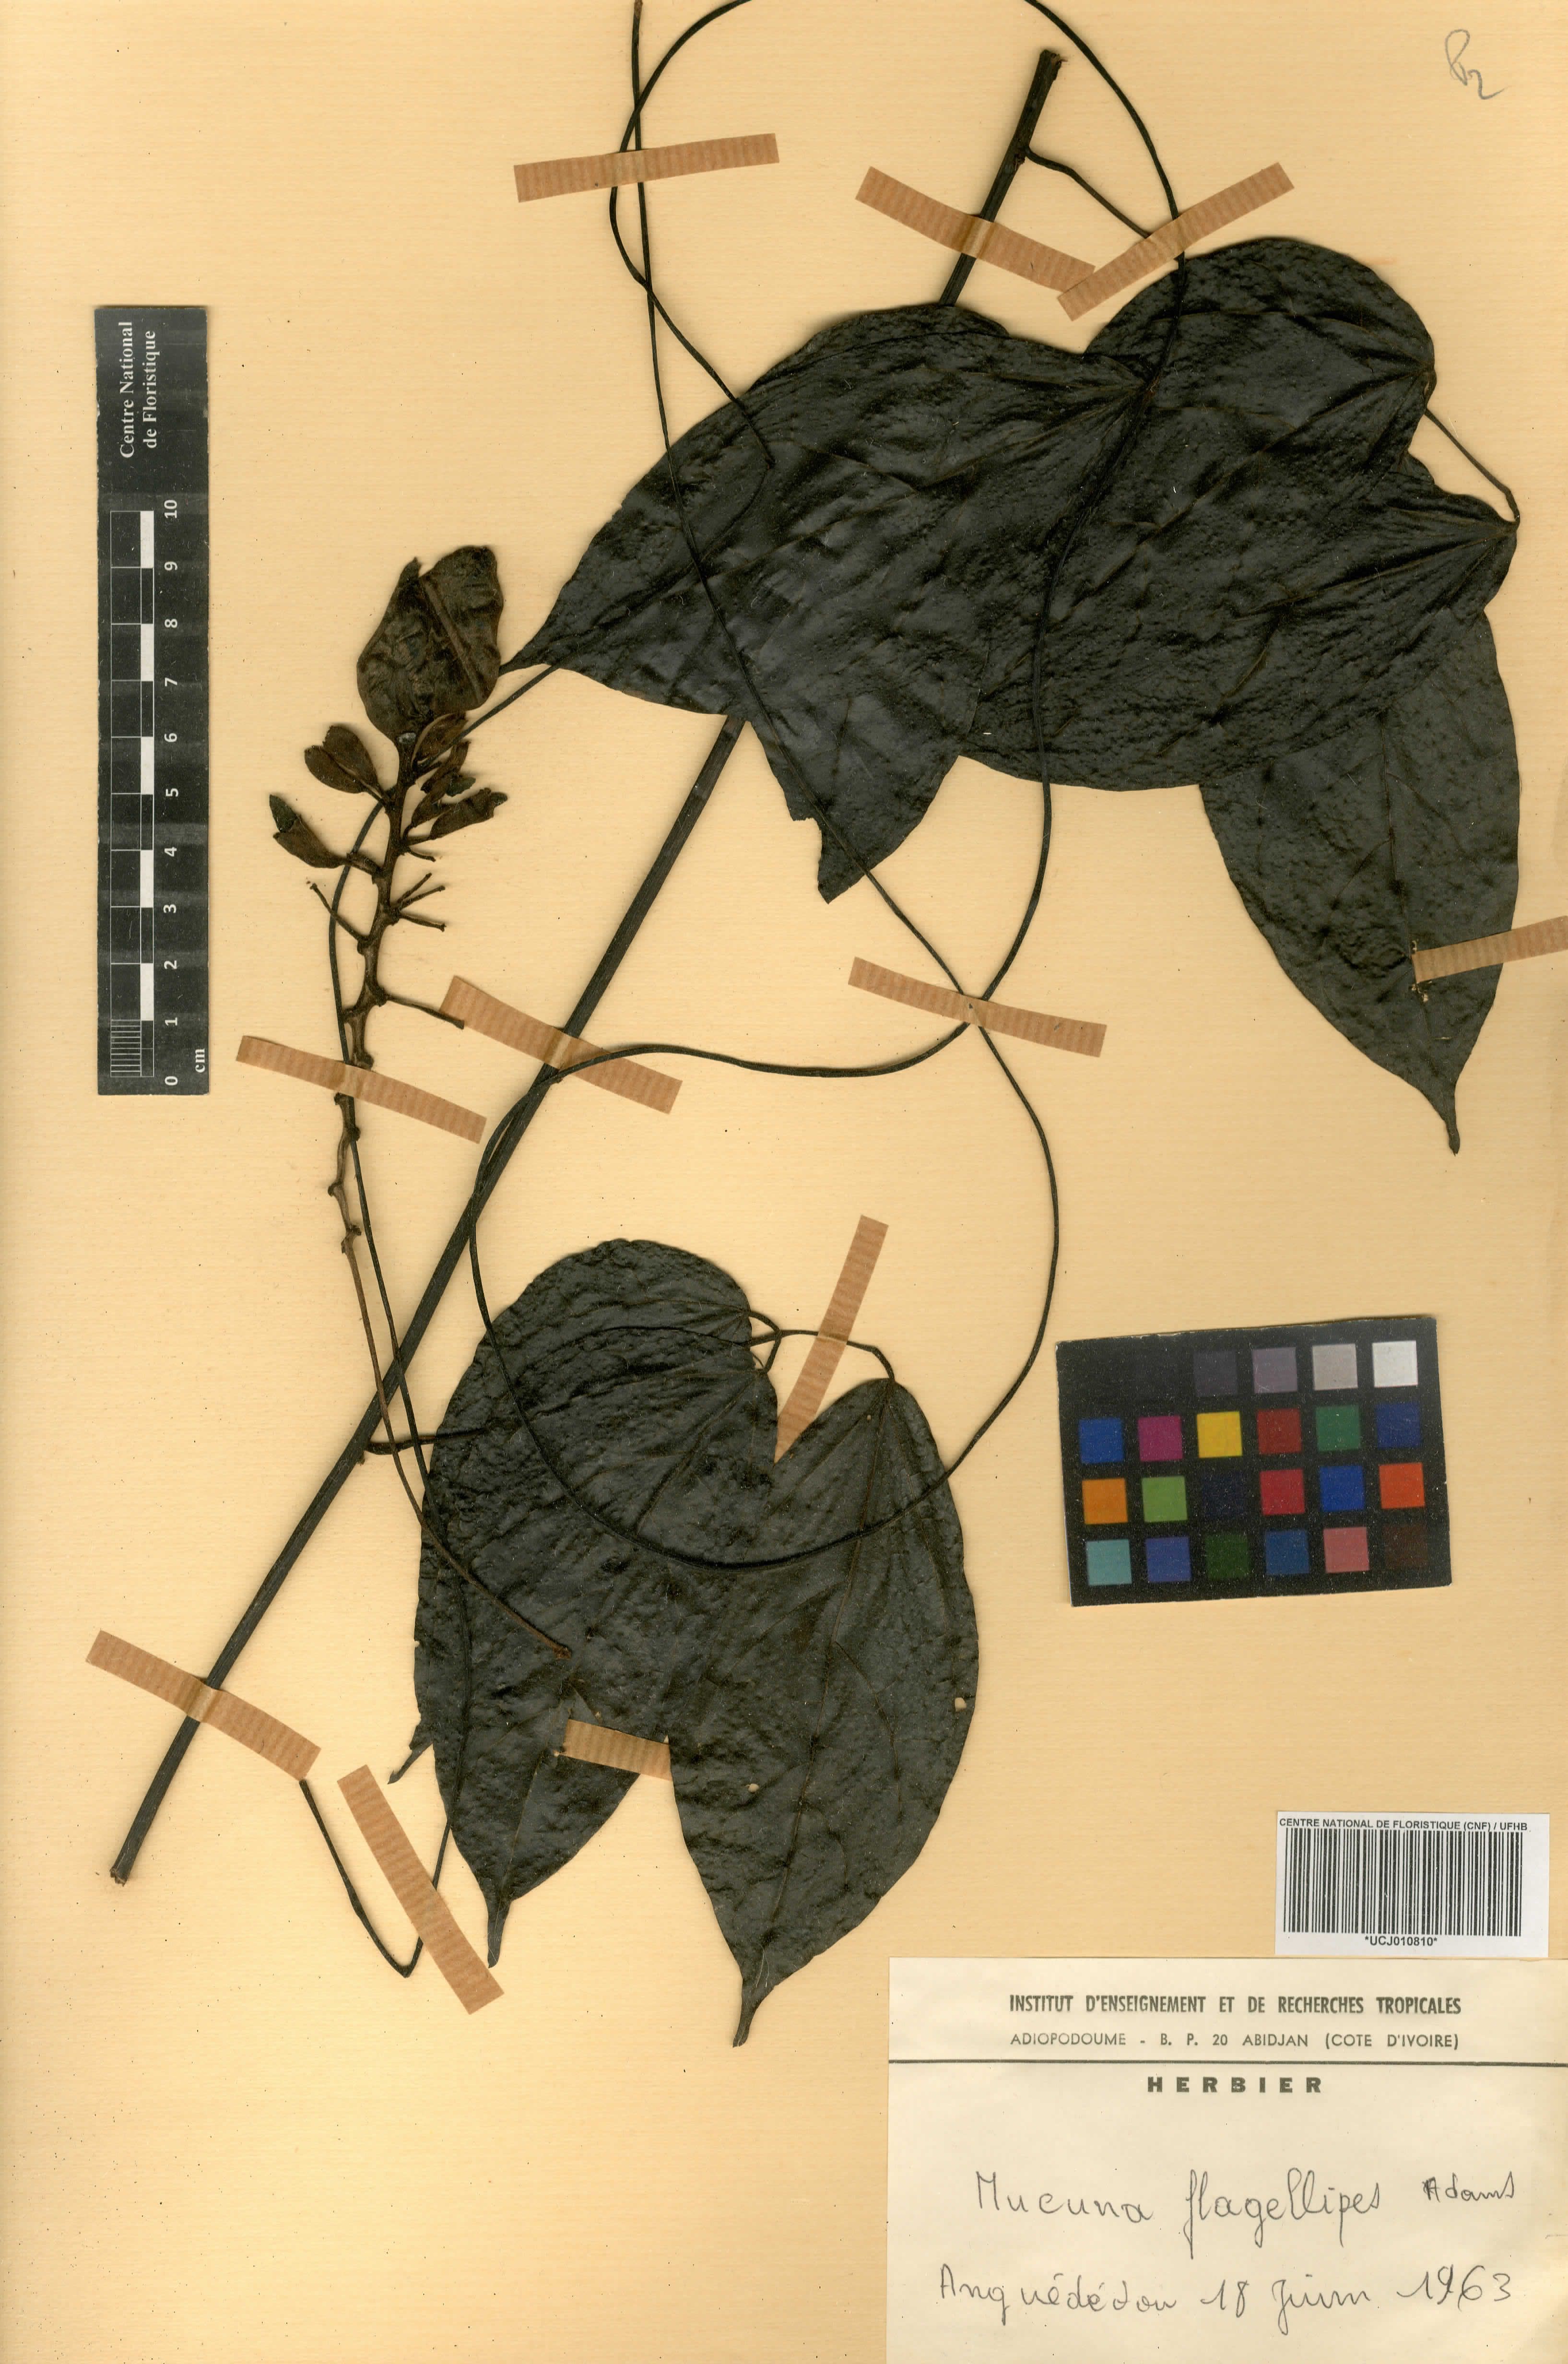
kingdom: Plantae
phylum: Tracheophyta
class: Magnoliopsida
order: Fabales
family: Fabaceae
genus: Mucuna
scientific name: Mucuna flagellipes
